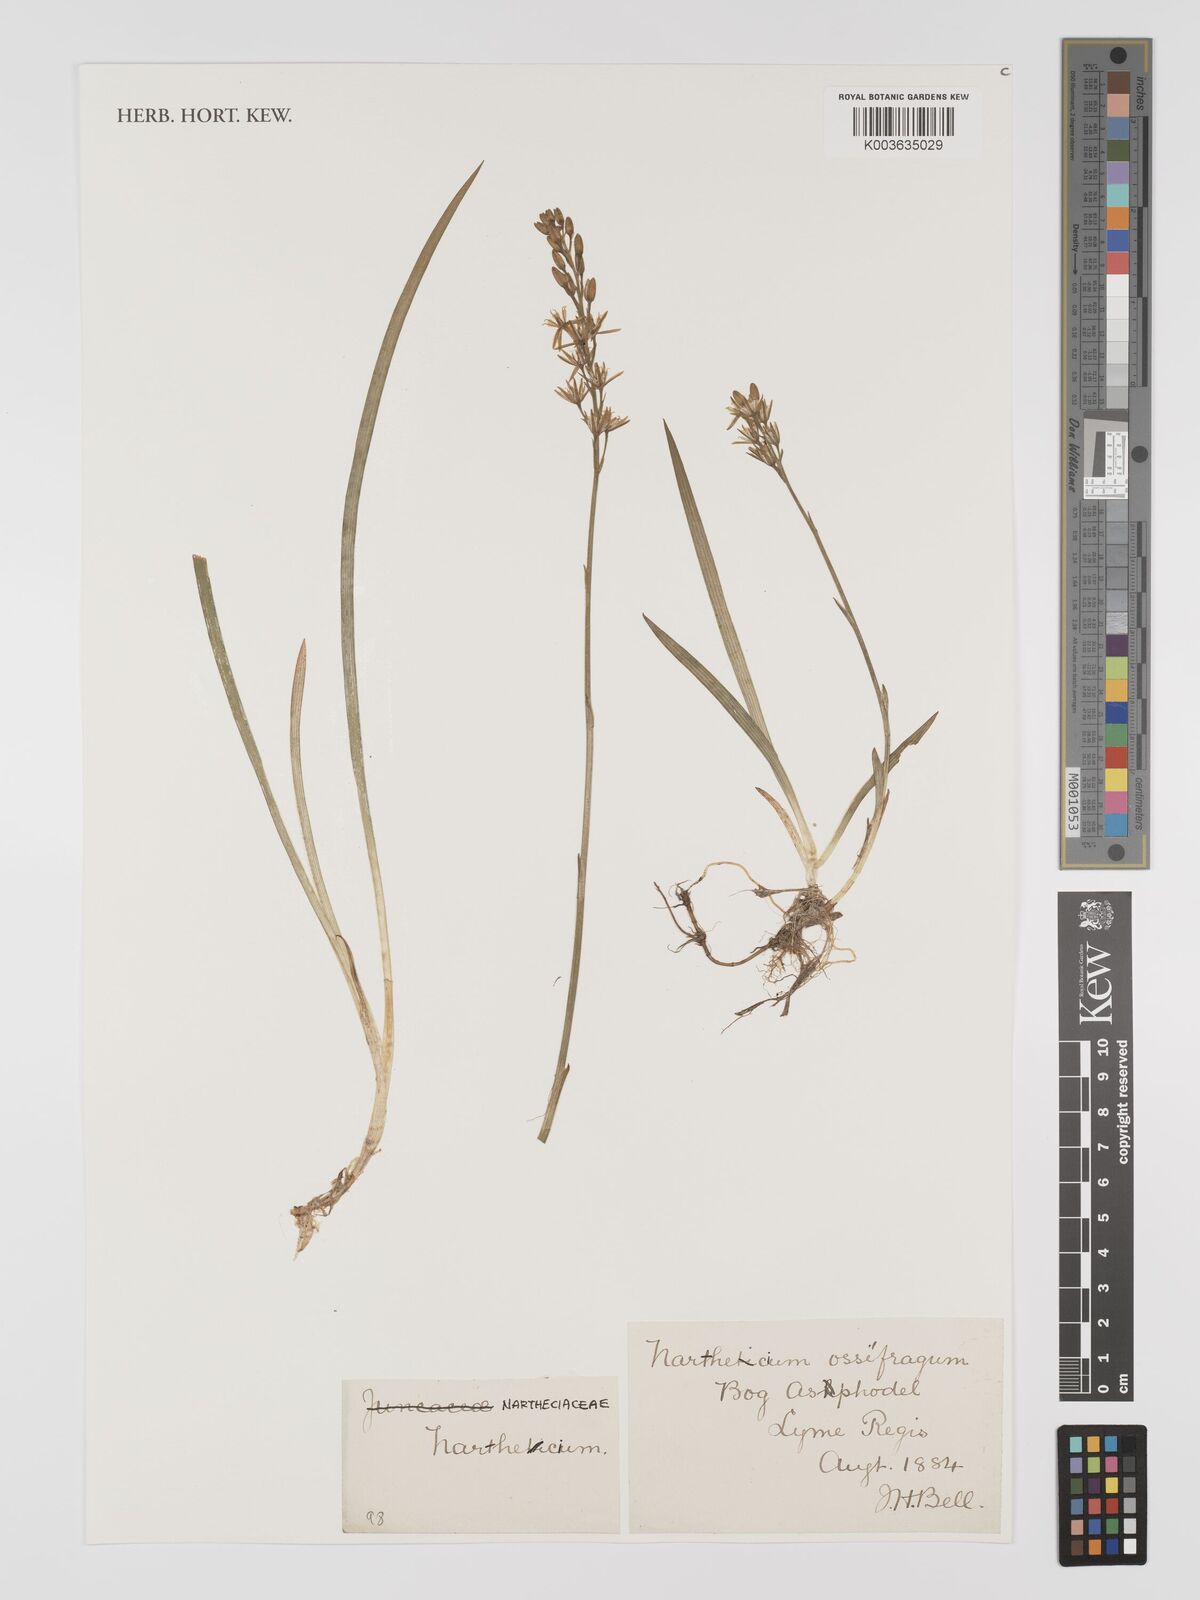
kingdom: Plantae
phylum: Tracheophyta
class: Liliopsida
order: Dioscoreales
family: Nartheciaceae
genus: Narthecium
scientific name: Narthecium ossifragum
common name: Bog asphodel
